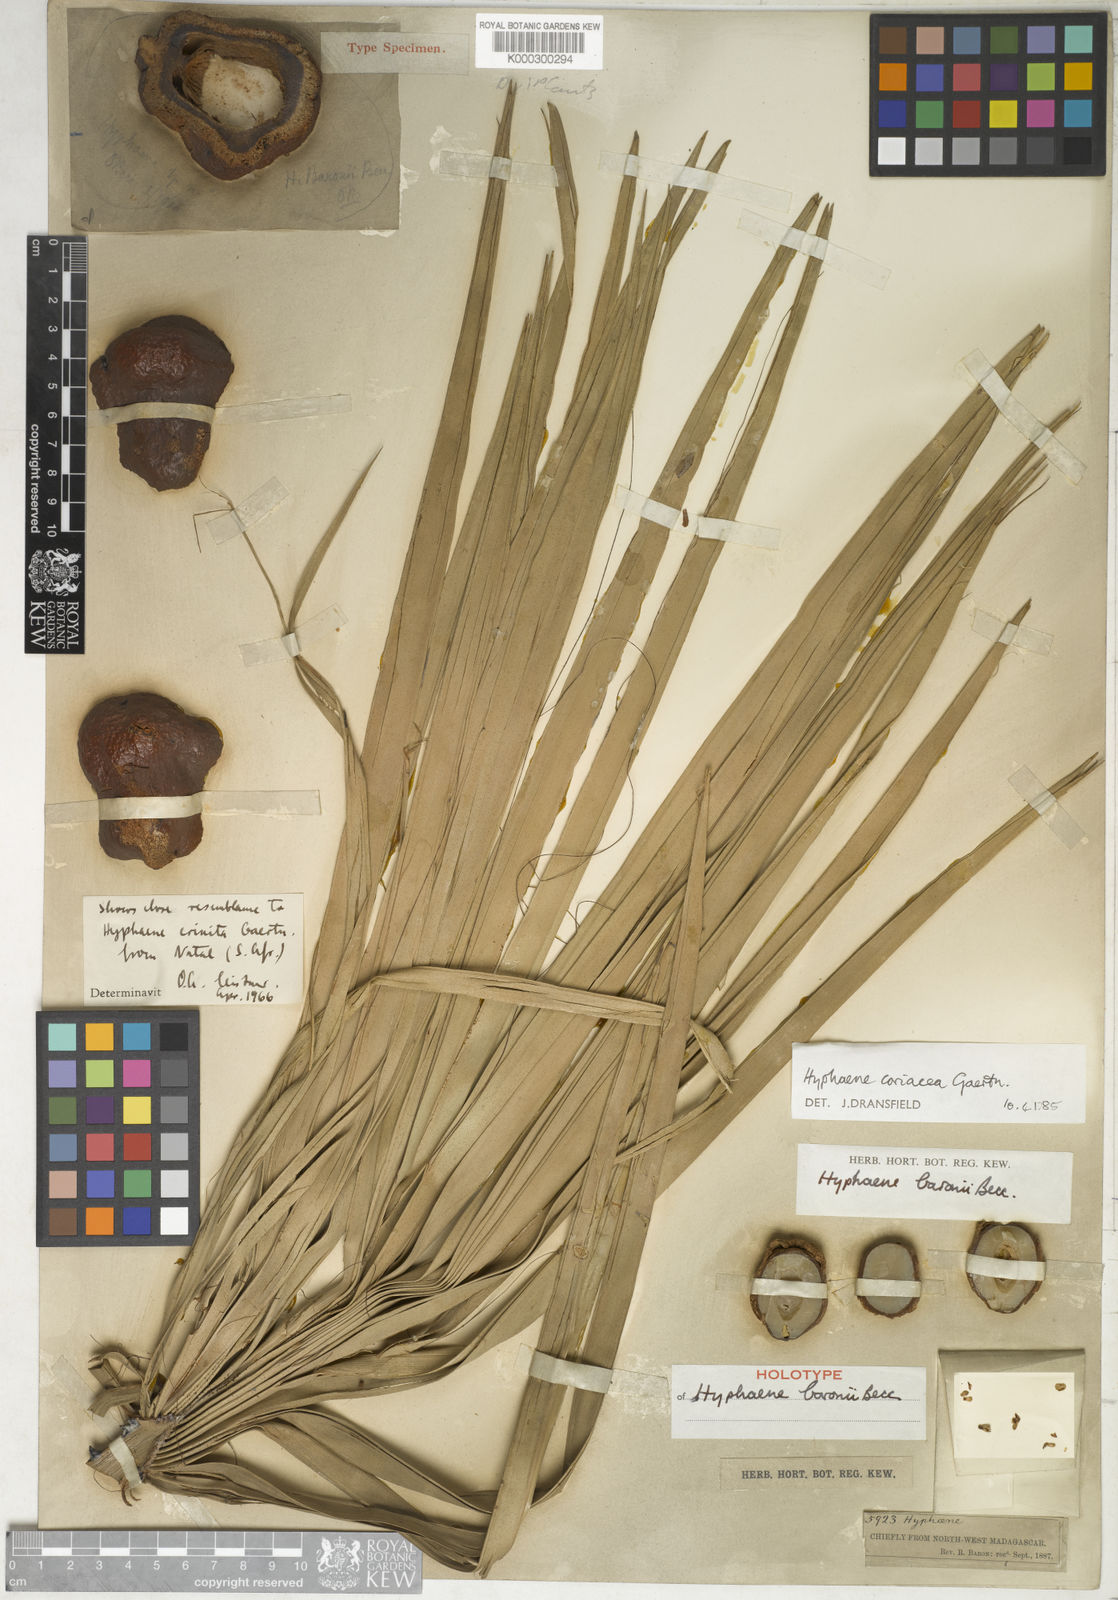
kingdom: Plantae
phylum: Tracheophyta
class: Liliopsida
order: Arecales
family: Arecaceae
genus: Dypsis
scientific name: Dypsis baronii
